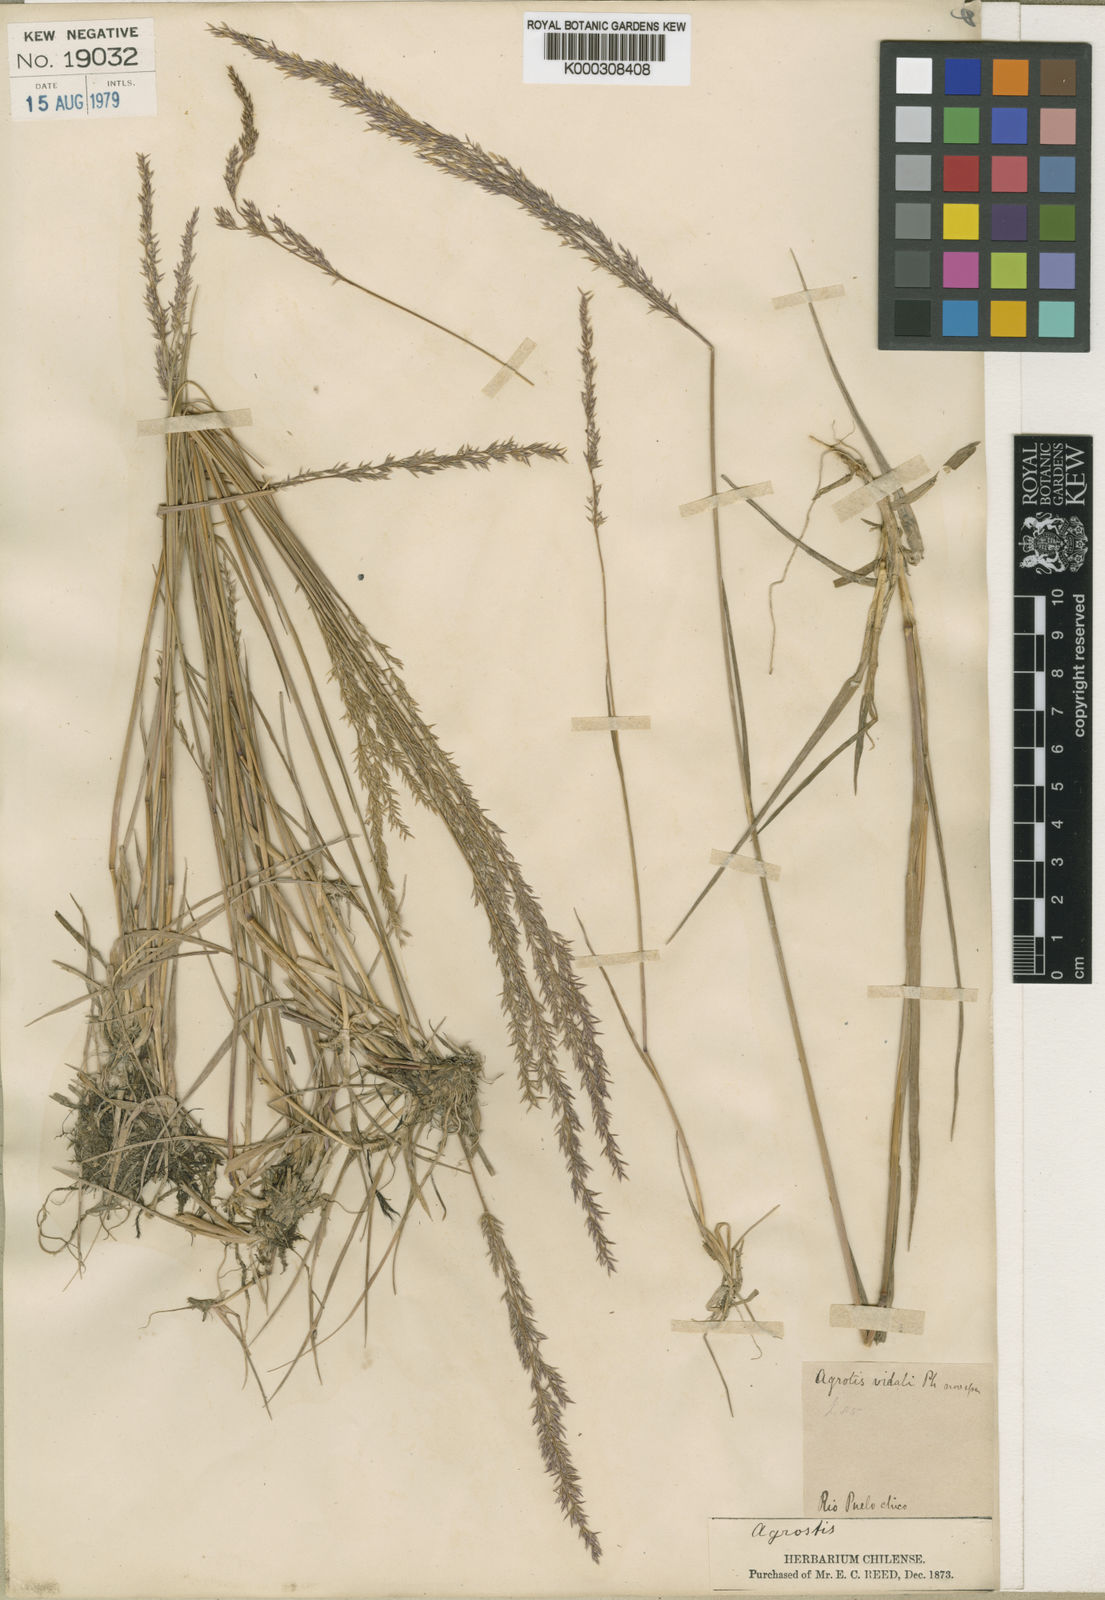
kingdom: Plantae
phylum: Tracheophyta
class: Liliopsida
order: Poales
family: Poaceae
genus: Agrostis
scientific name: Agrostis vidalii
